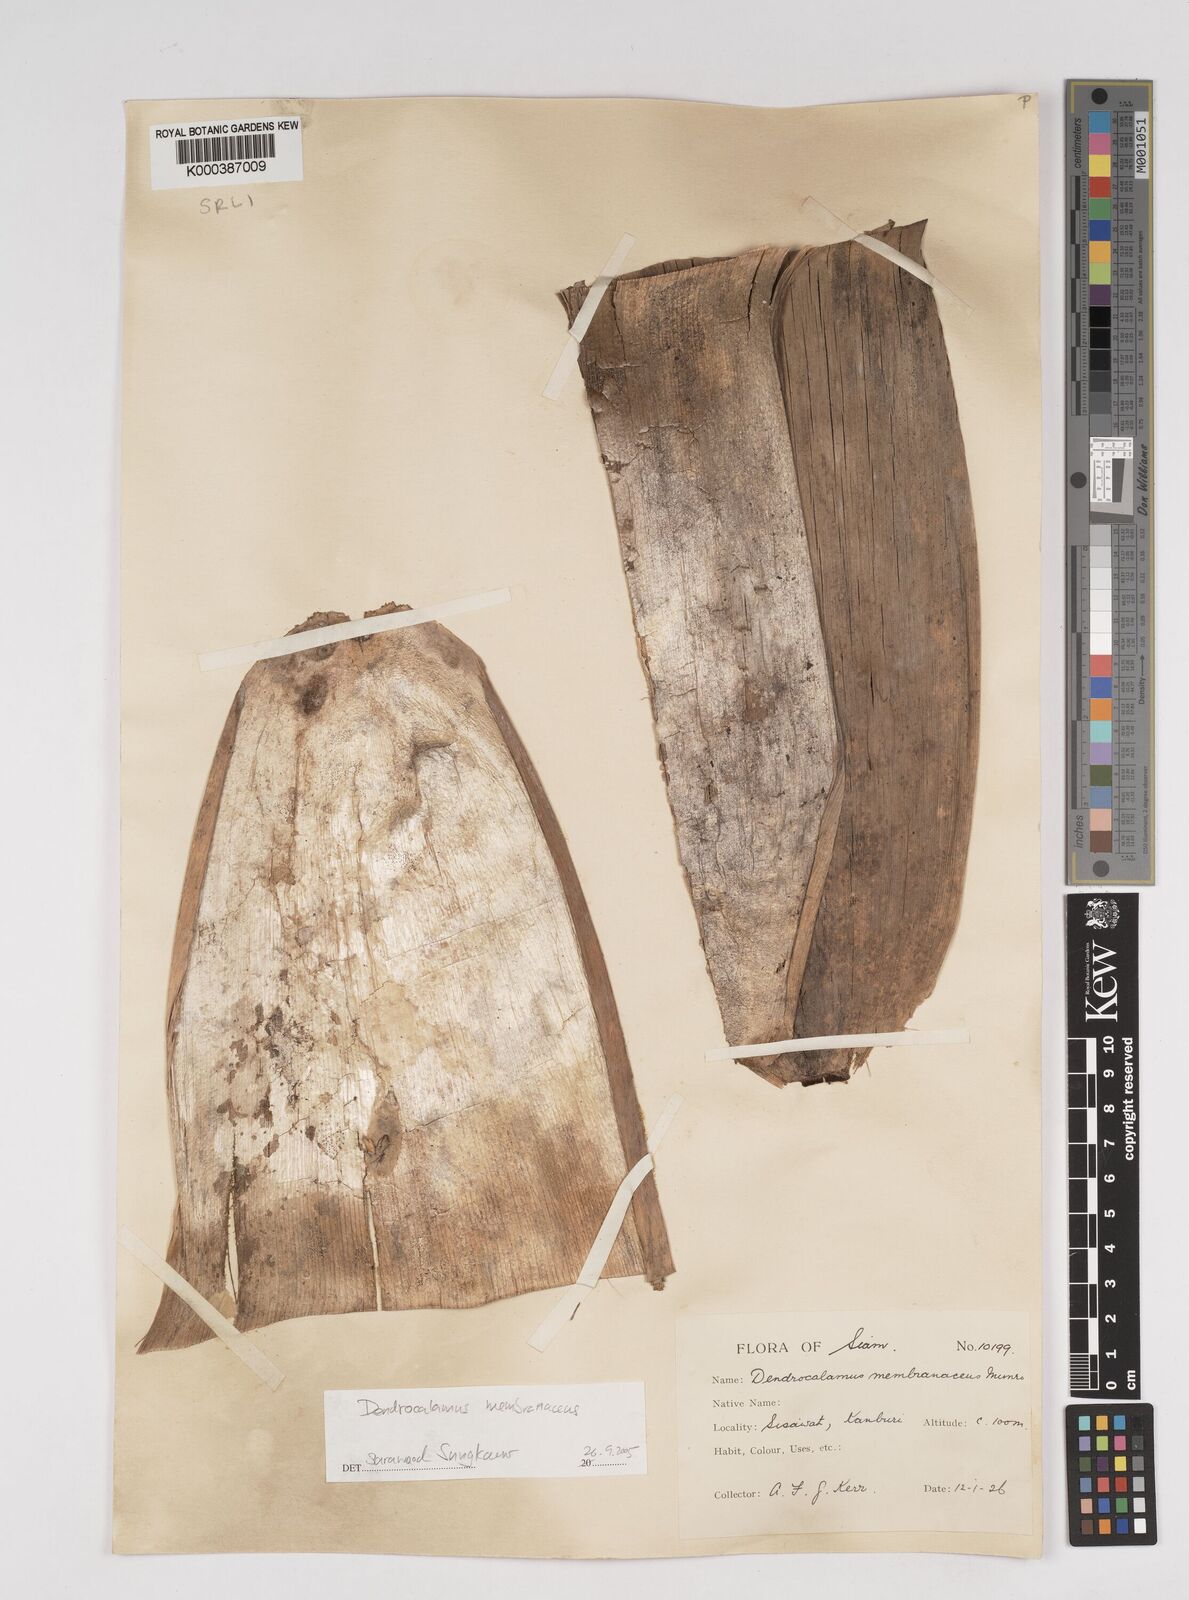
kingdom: Plantae
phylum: Tracheophyta
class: Liliopsida
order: Poales
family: Poaceae
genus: Dendrocalamus
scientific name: Dendrocalamus membranaceus
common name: White bamboo
